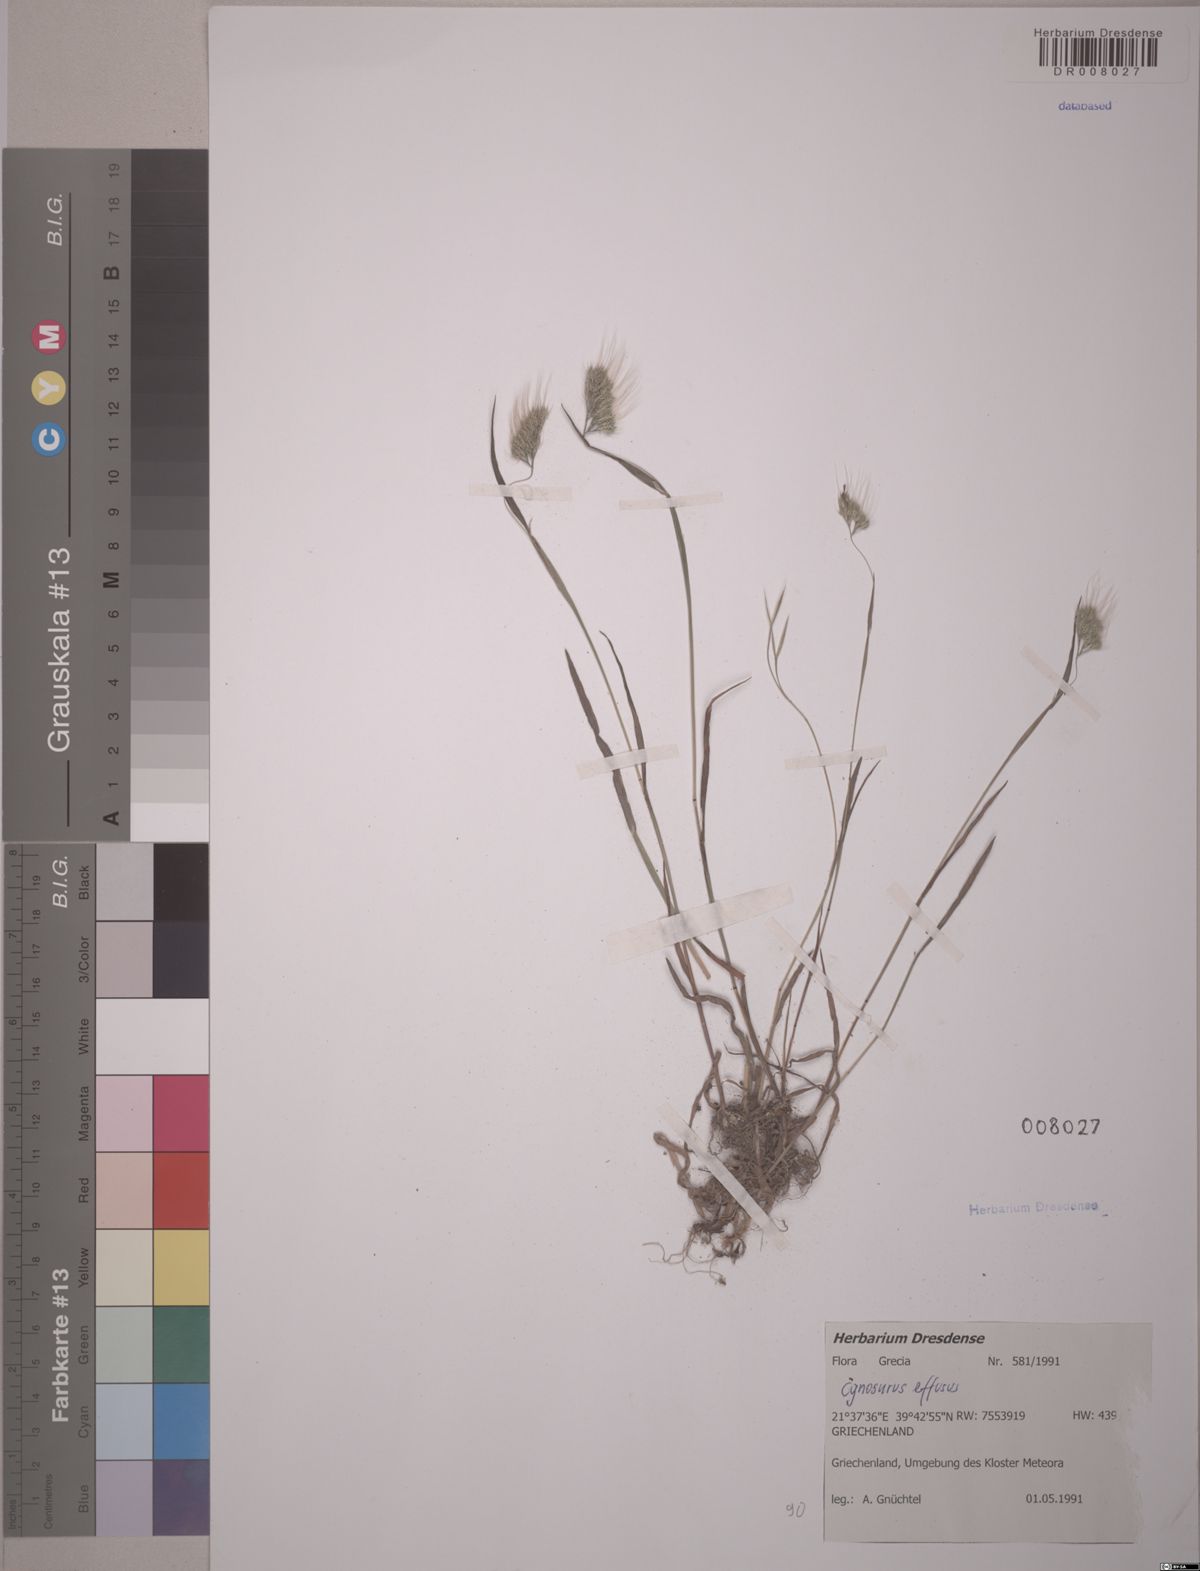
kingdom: Plantae
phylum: Tracheophyta
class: Liliopsida
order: Poales
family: Poaceae
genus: Cynosurus
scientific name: Cynosurus effusus
